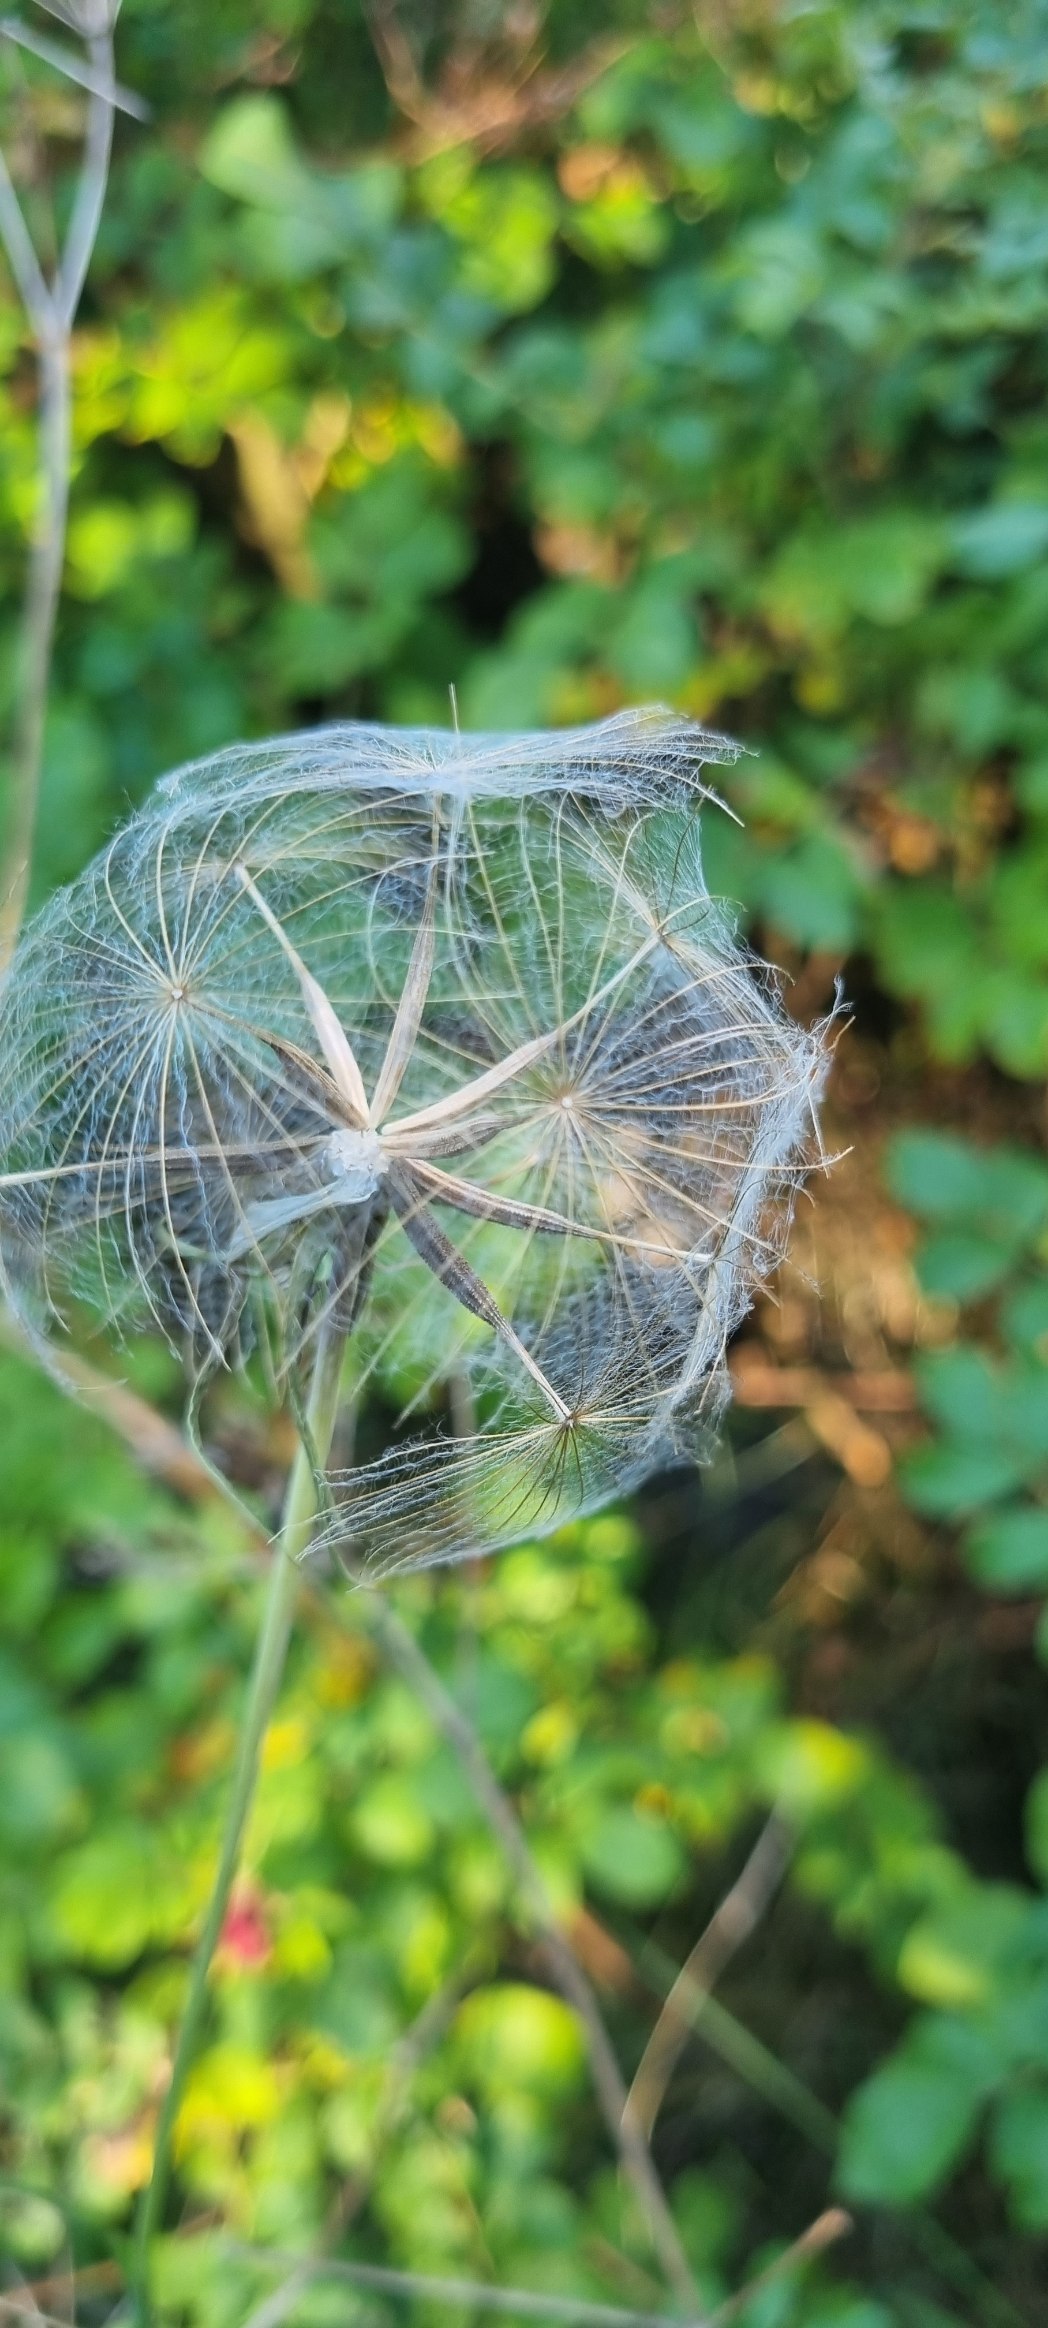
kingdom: Plantae
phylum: Tracheophyta
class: Magnoliopsida
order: Asterales
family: Asteraceae
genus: Tragopogon
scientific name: Tragopogon pratensis
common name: Gedeskæg
